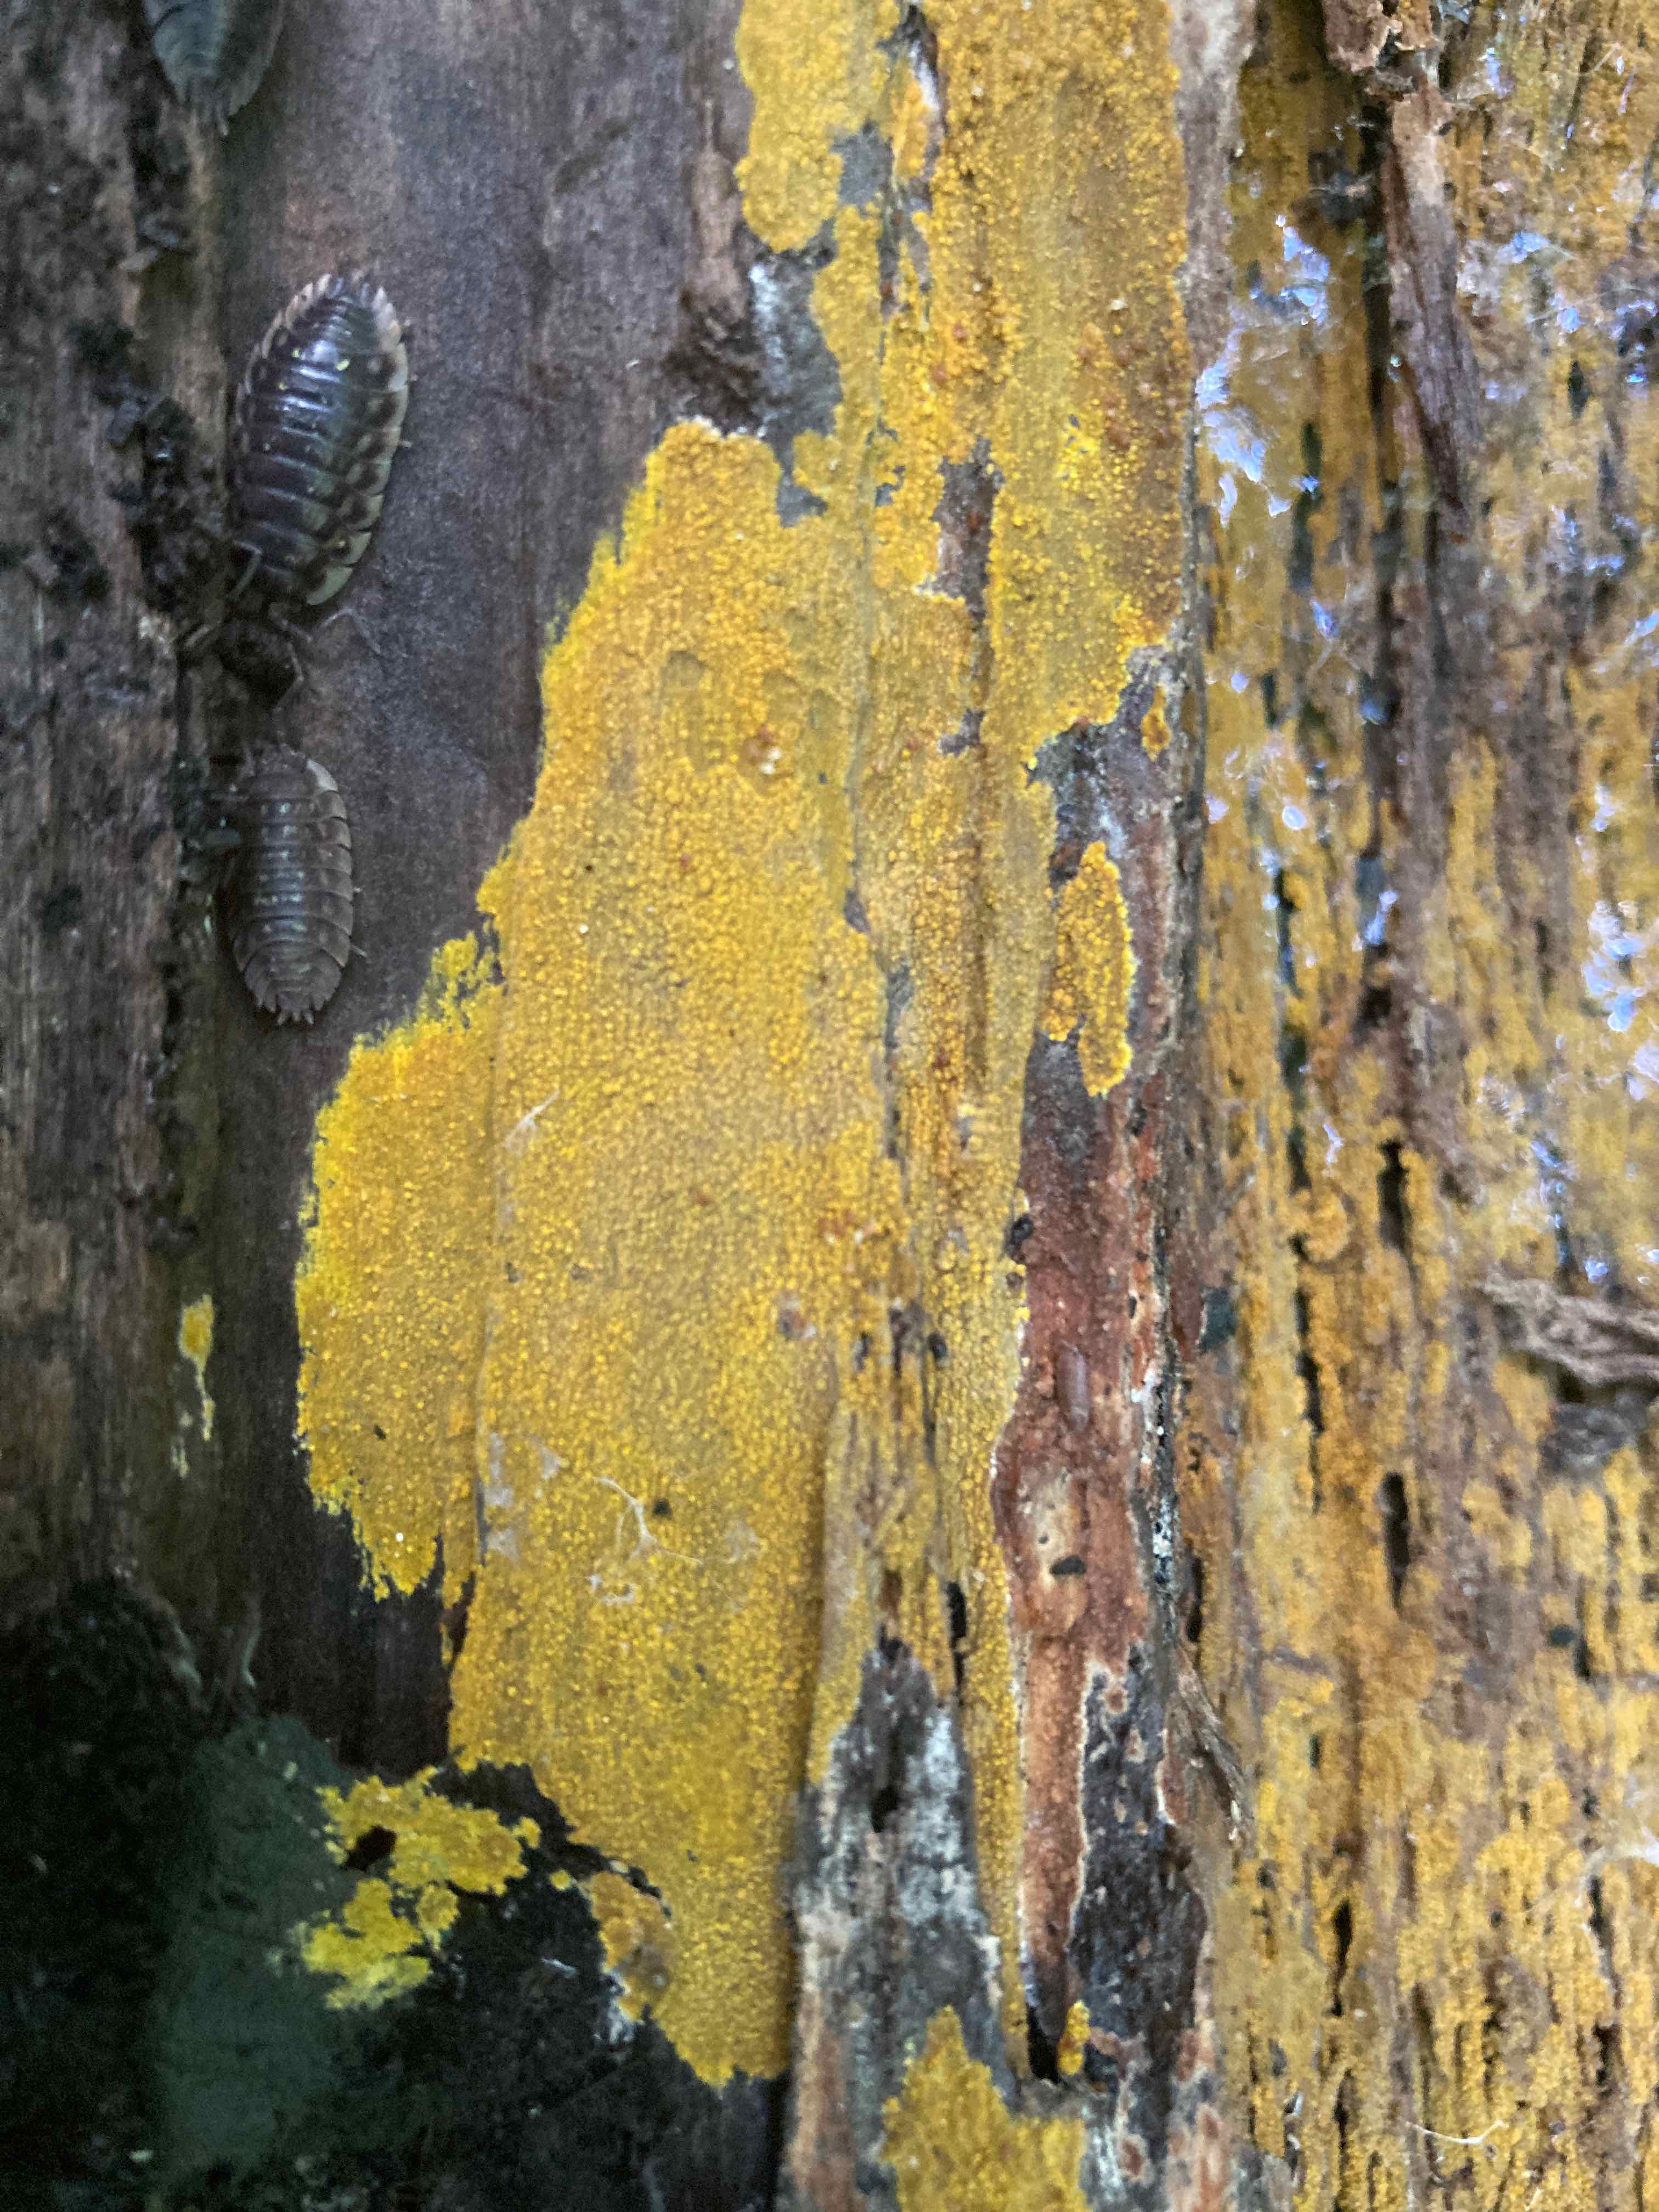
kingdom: Fungi
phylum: Basidiomycota
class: Agaricomycetes
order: Polyporales
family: Meruliaceae
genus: Phlebiodontia
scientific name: Phlebiodontia subochracea
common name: svovl-åresvamp
